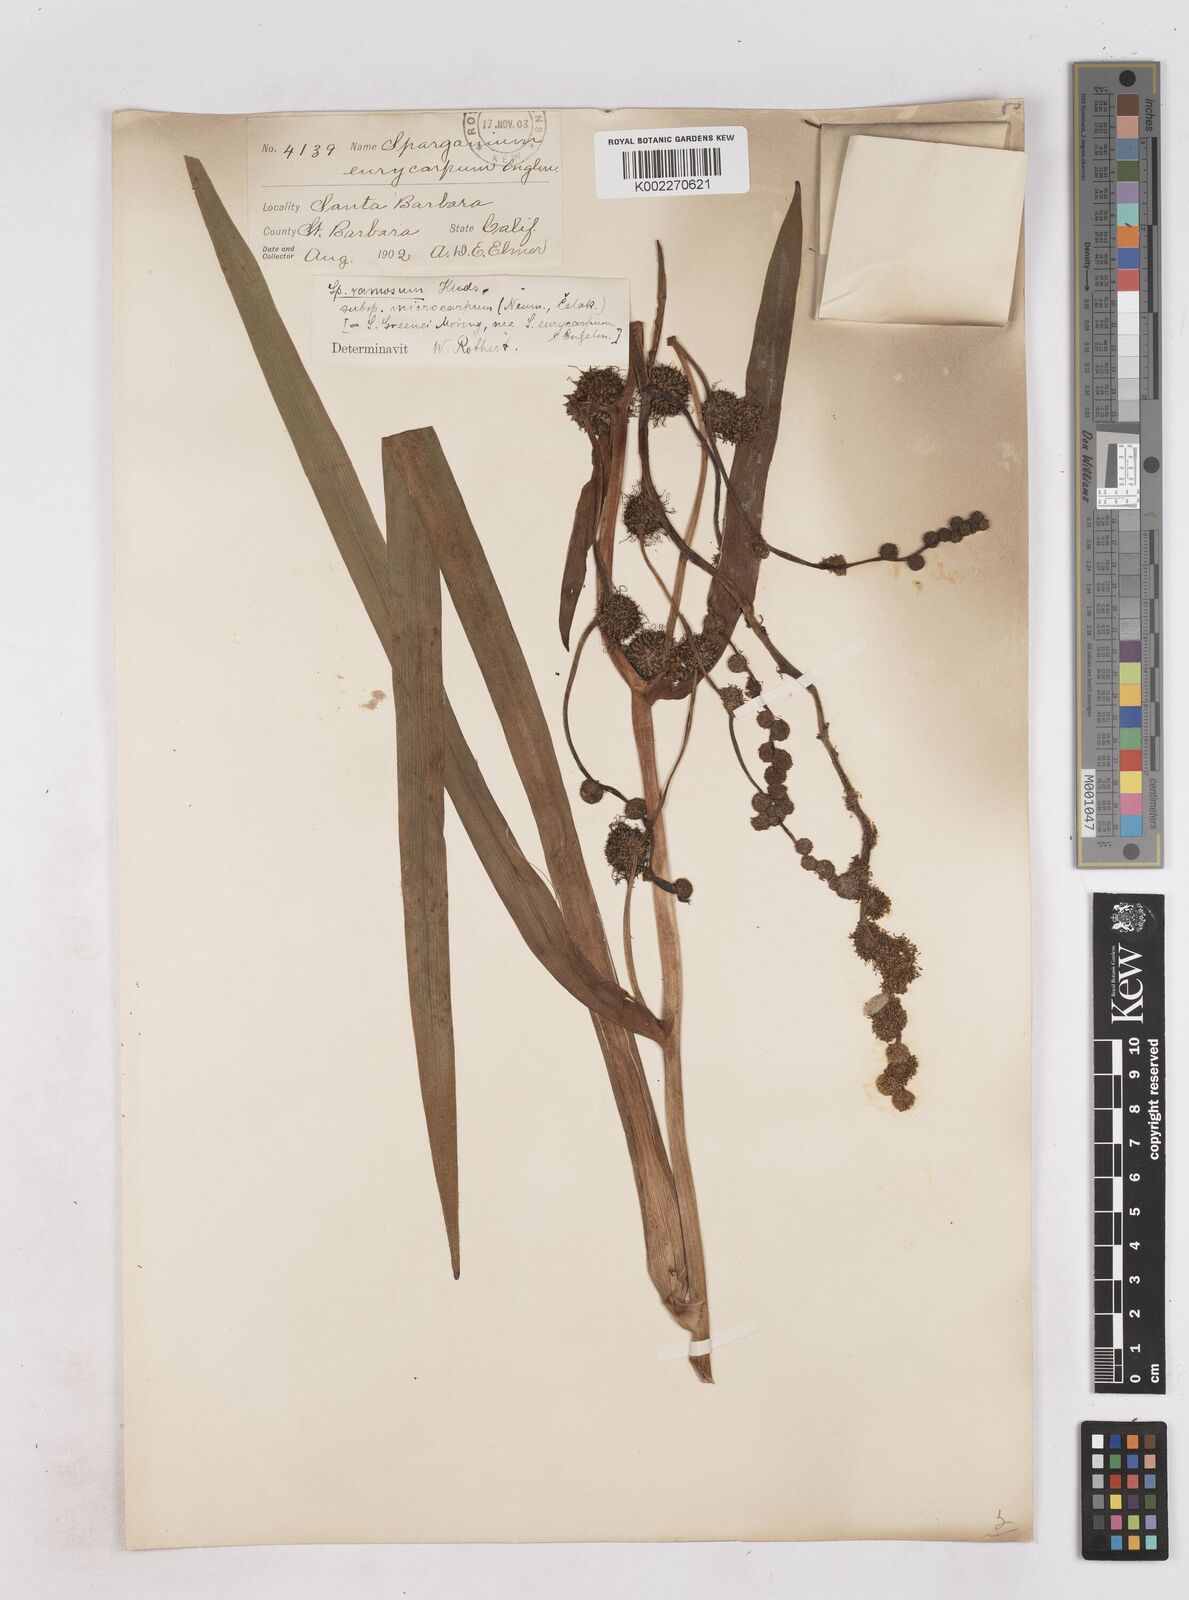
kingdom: Plantae
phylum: Tracheophyta
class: Liliopsida
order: Poales
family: Typhaceae
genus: Sparganium
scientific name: Sparganium eurycarpum
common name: Broad-fruited burreed
